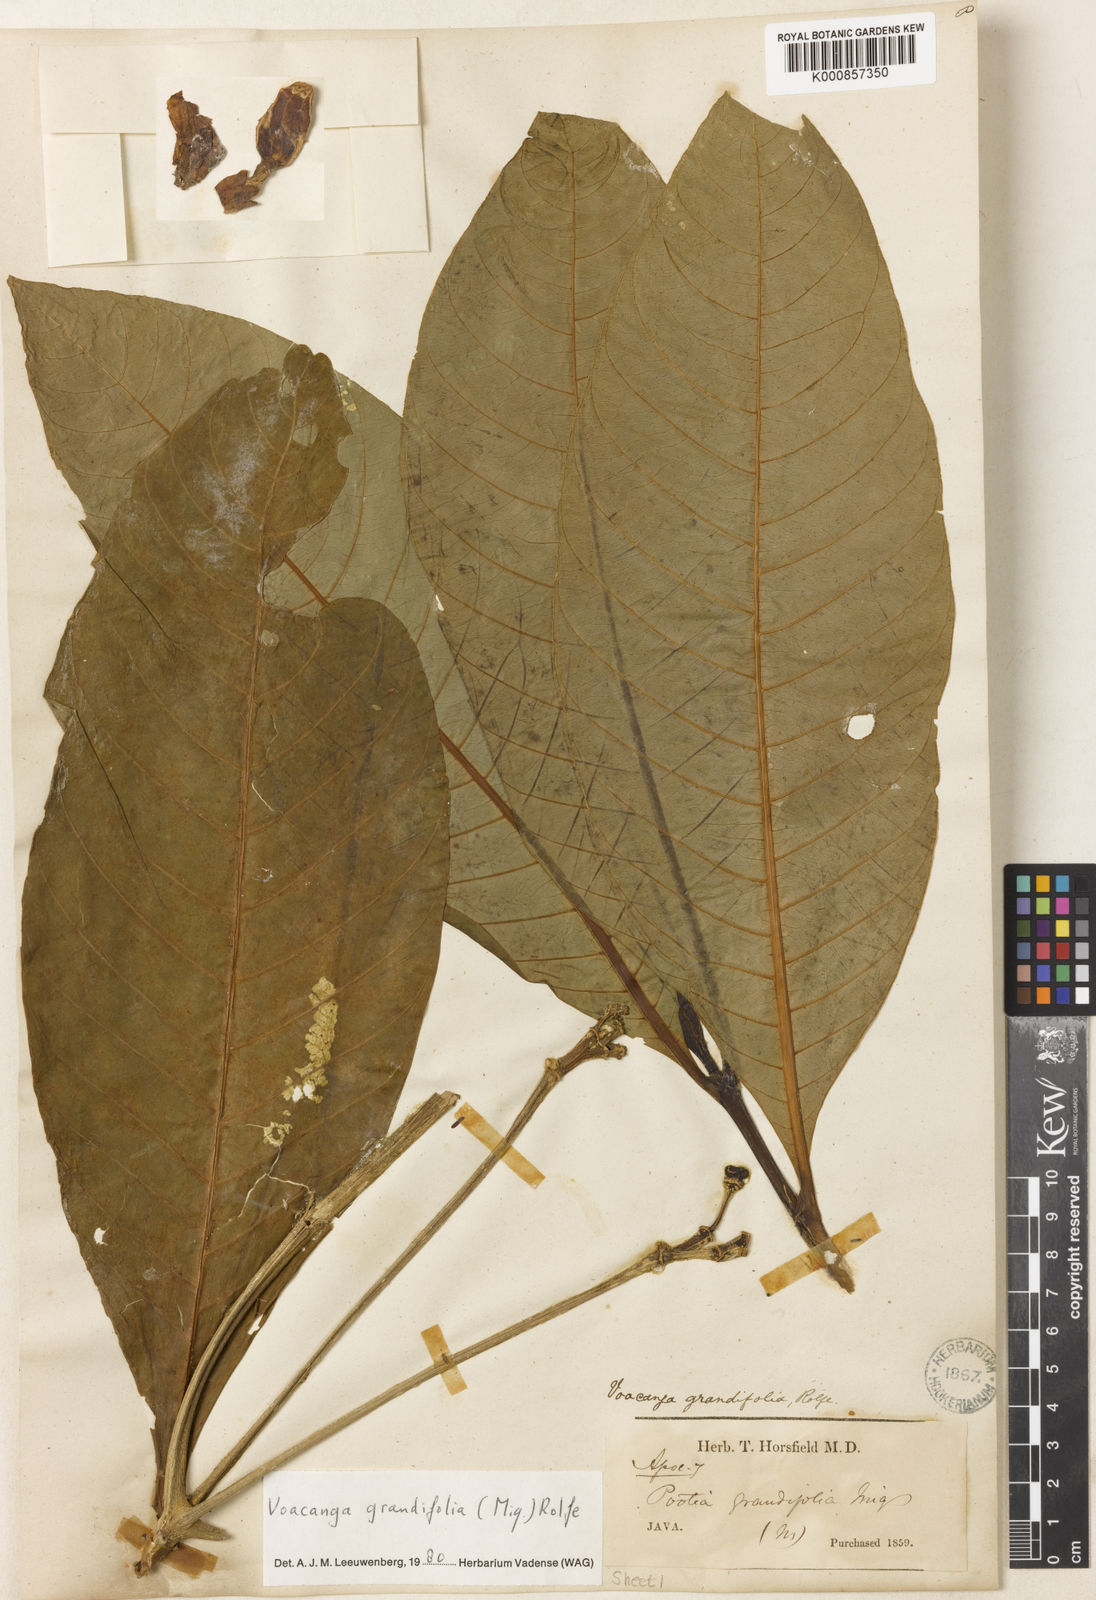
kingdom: Plantae
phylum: Tracheophyta
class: Magnoliopsida
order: Gentianales
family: Apocynaceae
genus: Voacanga
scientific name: Voacanga grandifolia
